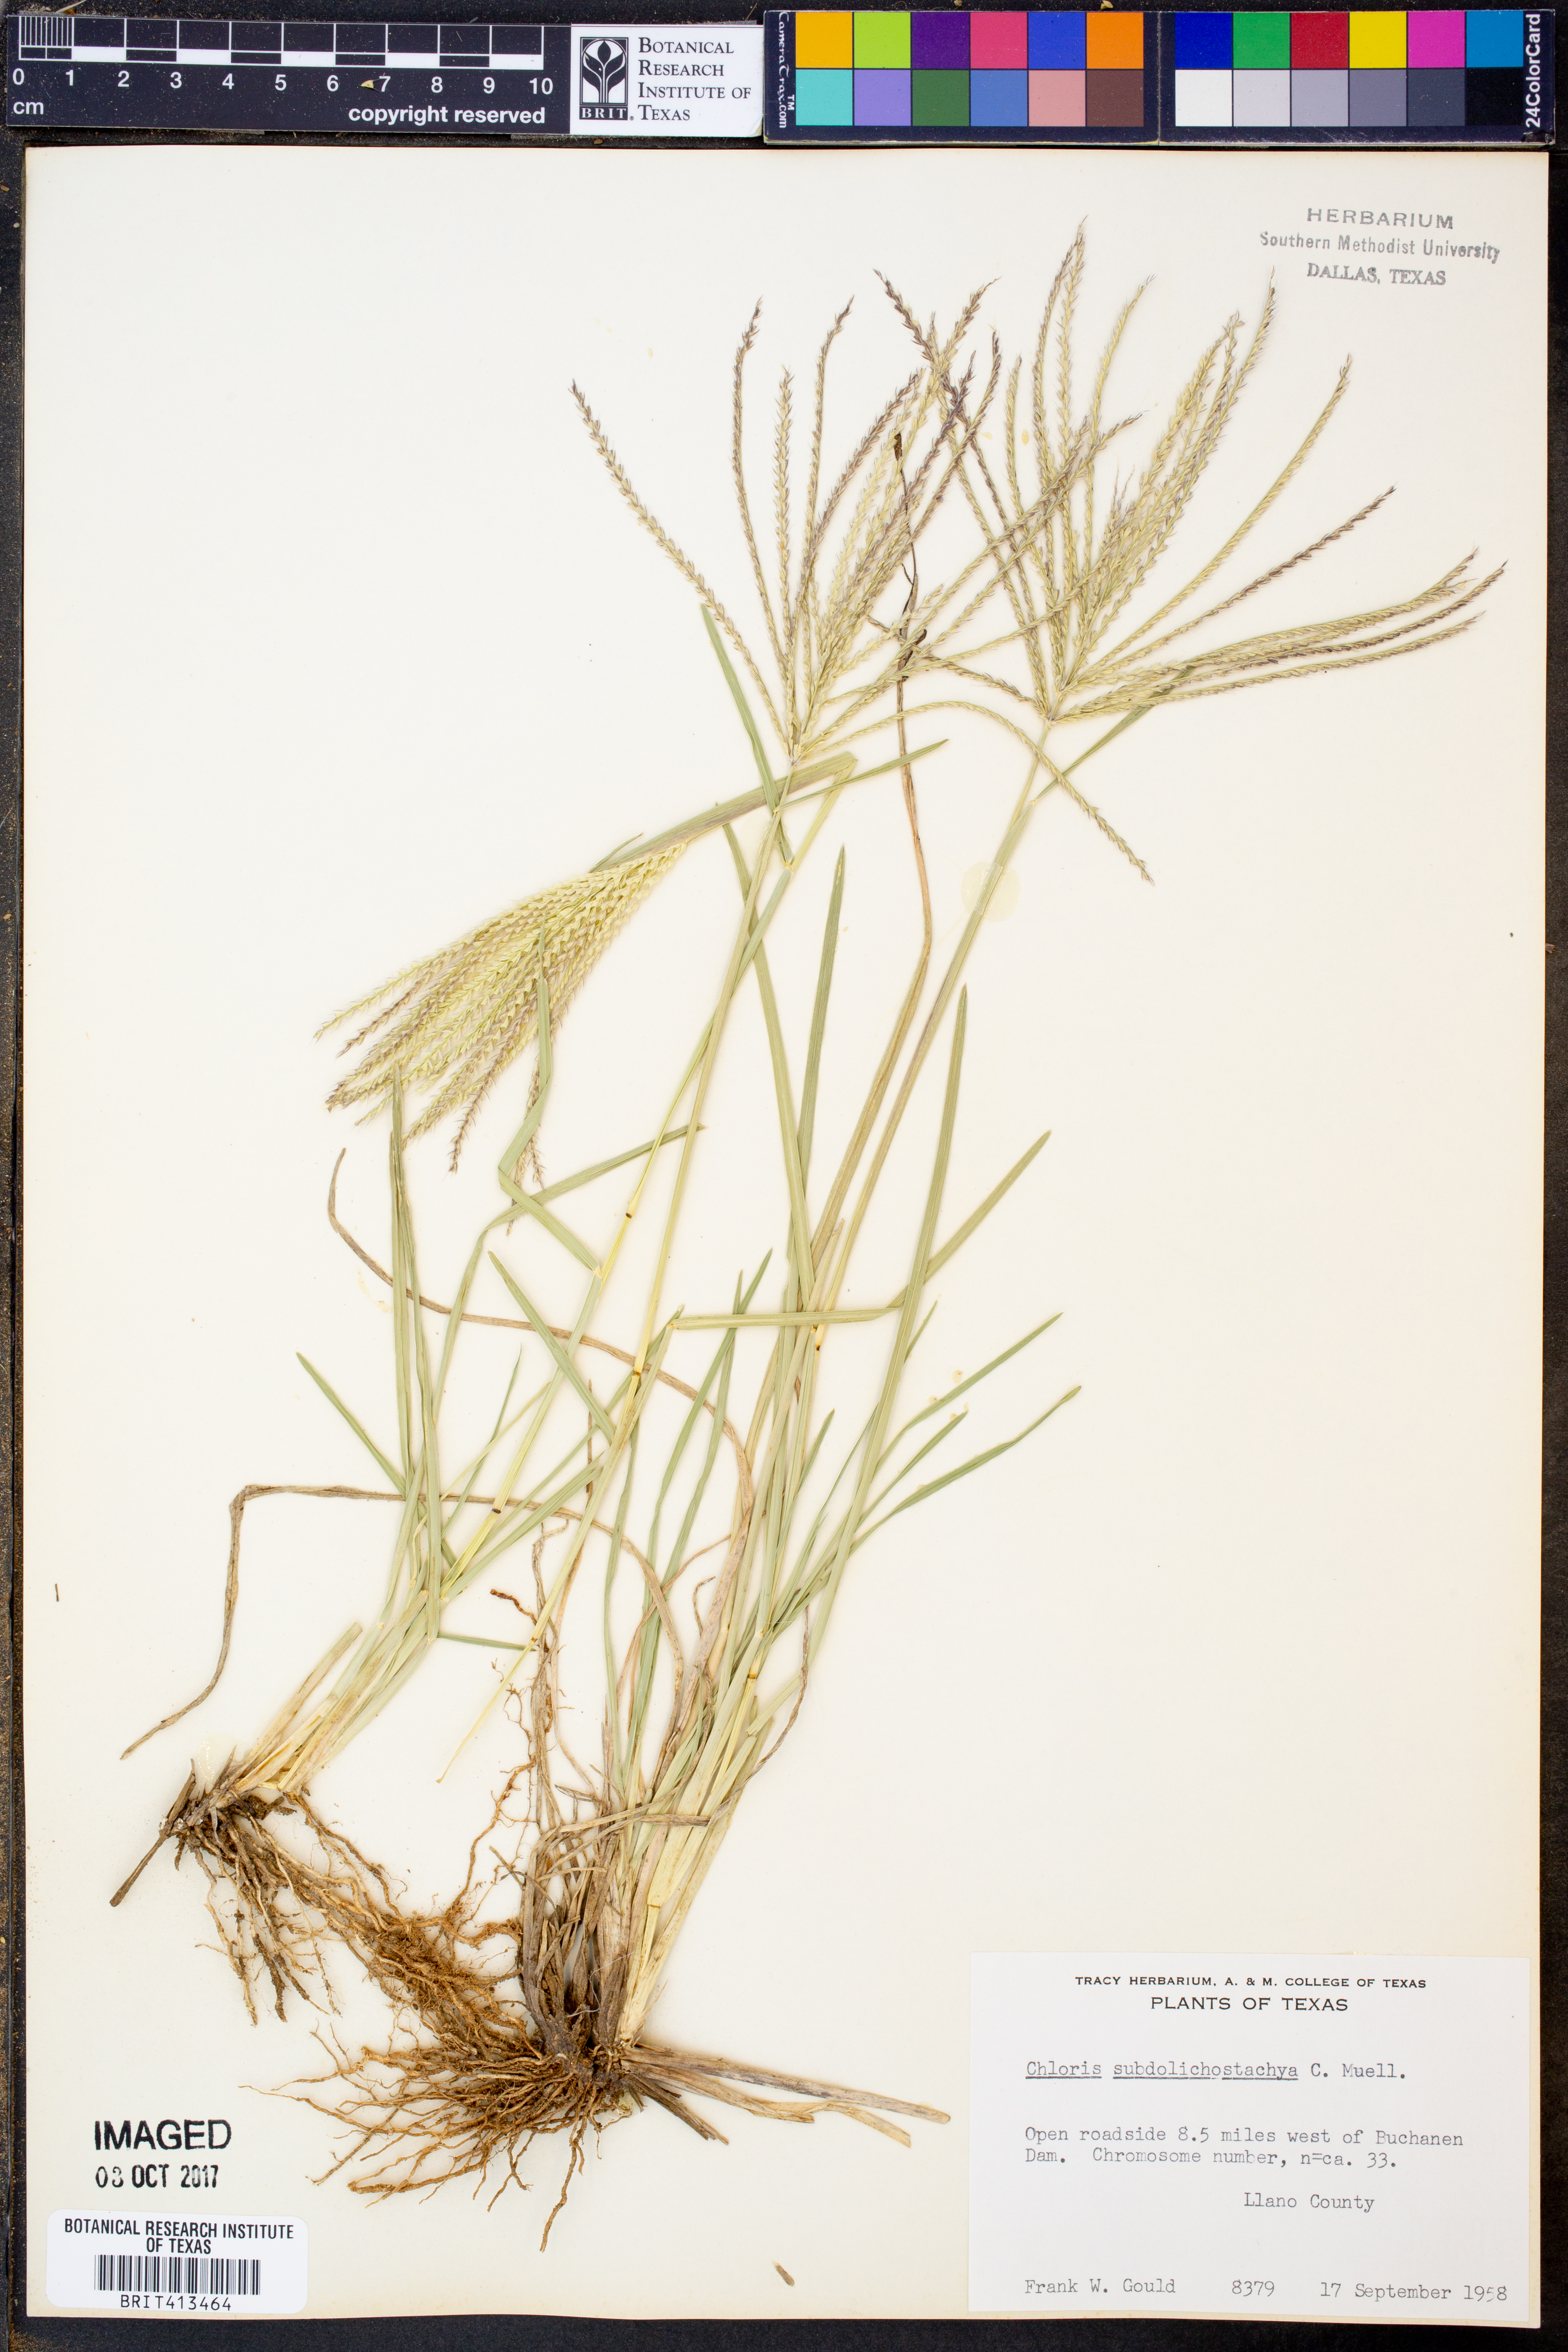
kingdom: Plantae
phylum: Tracheophyta
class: Liliopsida
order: Poales
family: Poaceae
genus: Chloris
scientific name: Chloris subdolichostachya
